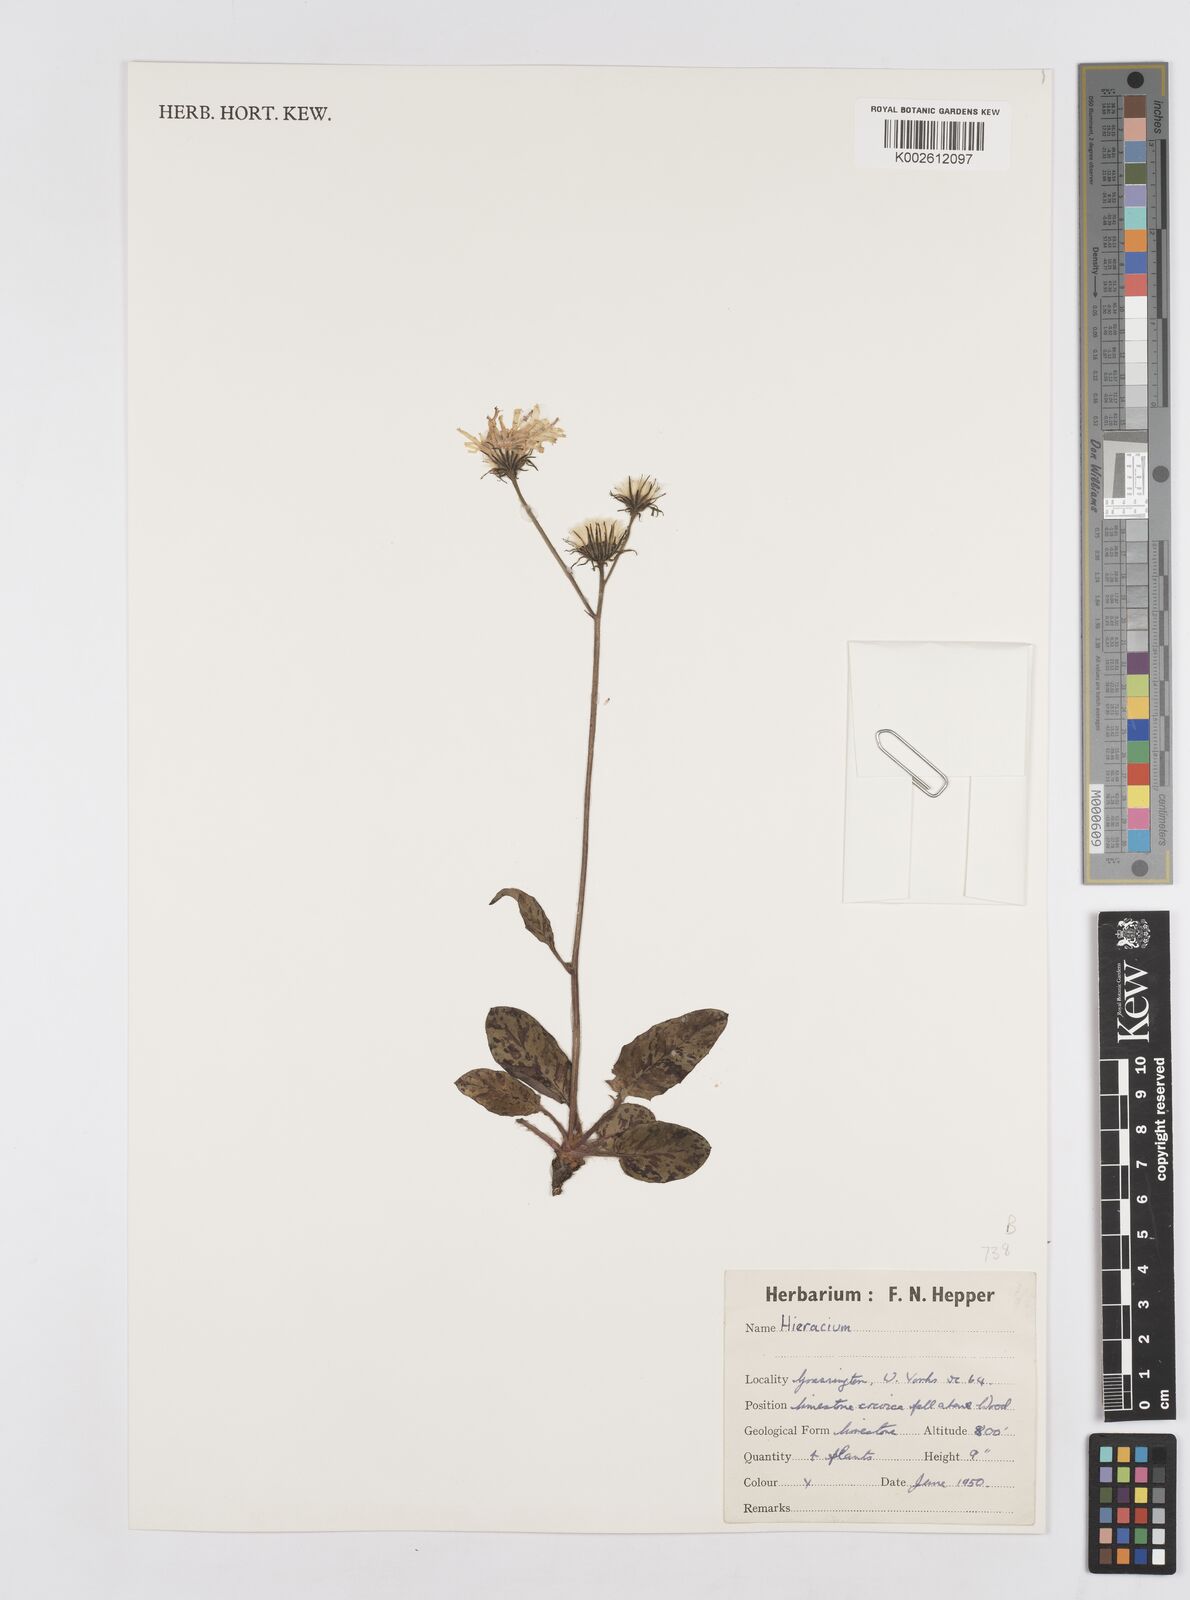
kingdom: Plantae
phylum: Tracheophyta
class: Magnoliopsida
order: Asterales
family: Asteraceae
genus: Hieracium
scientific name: Hieracium
